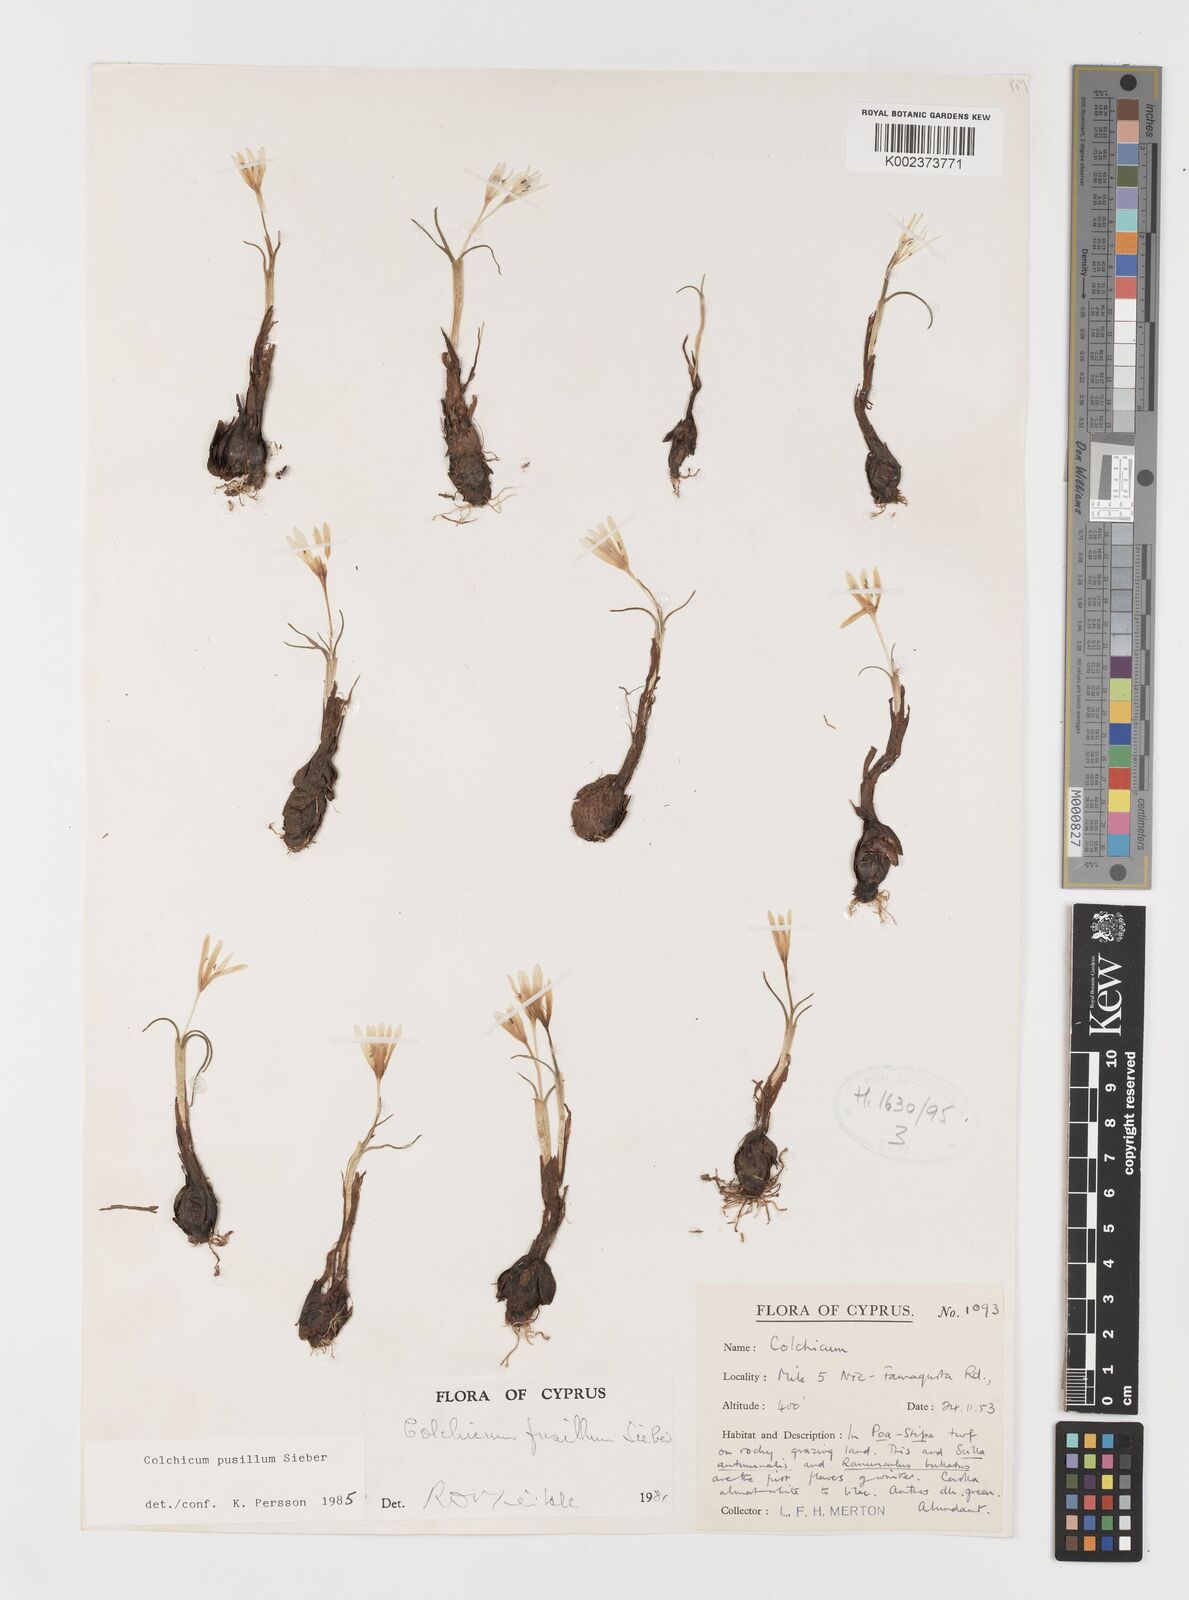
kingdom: Plantae
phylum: Tracheophyta
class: Liliopsida
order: Liliales
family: Colchicaceae
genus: Colchicum
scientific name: Colchicum pusillum
